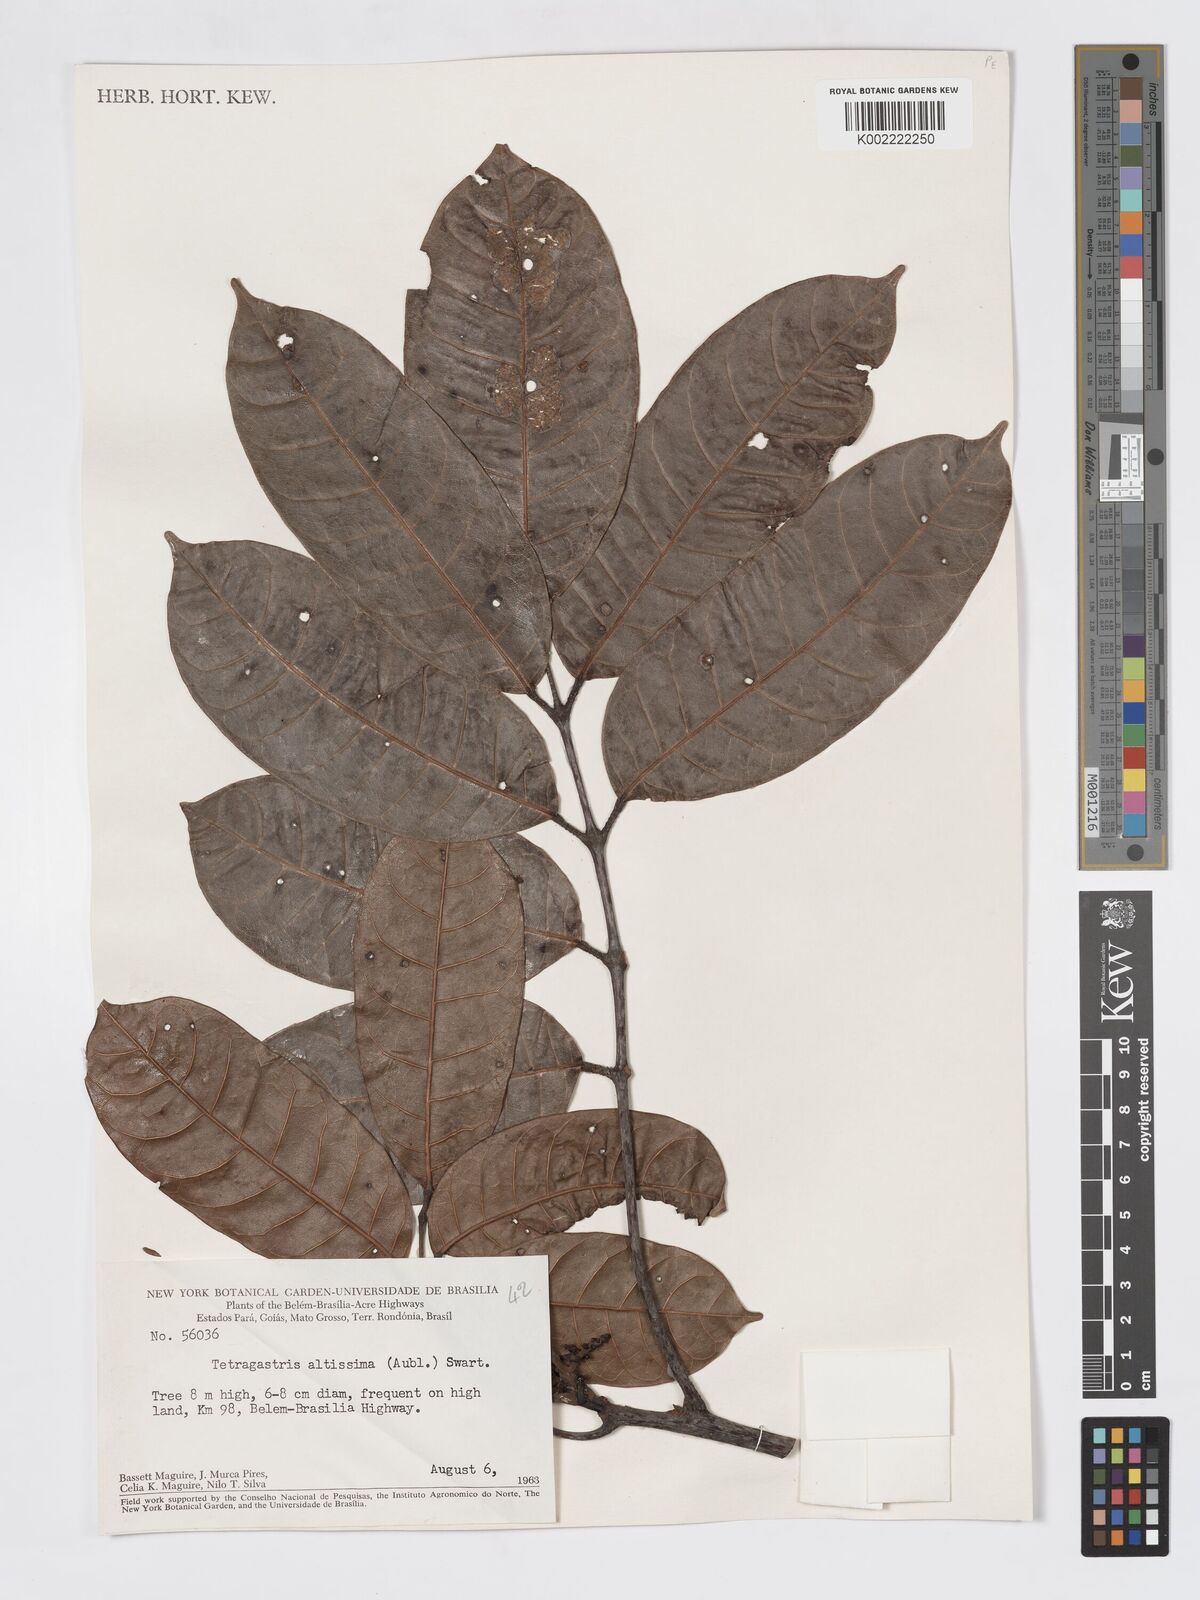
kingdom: Plantae
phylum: Tracheophyta
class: Magnoliopsida
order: Sapindales
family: Burseraceae
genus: Tetragastris
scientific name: Tetragastris altissima
